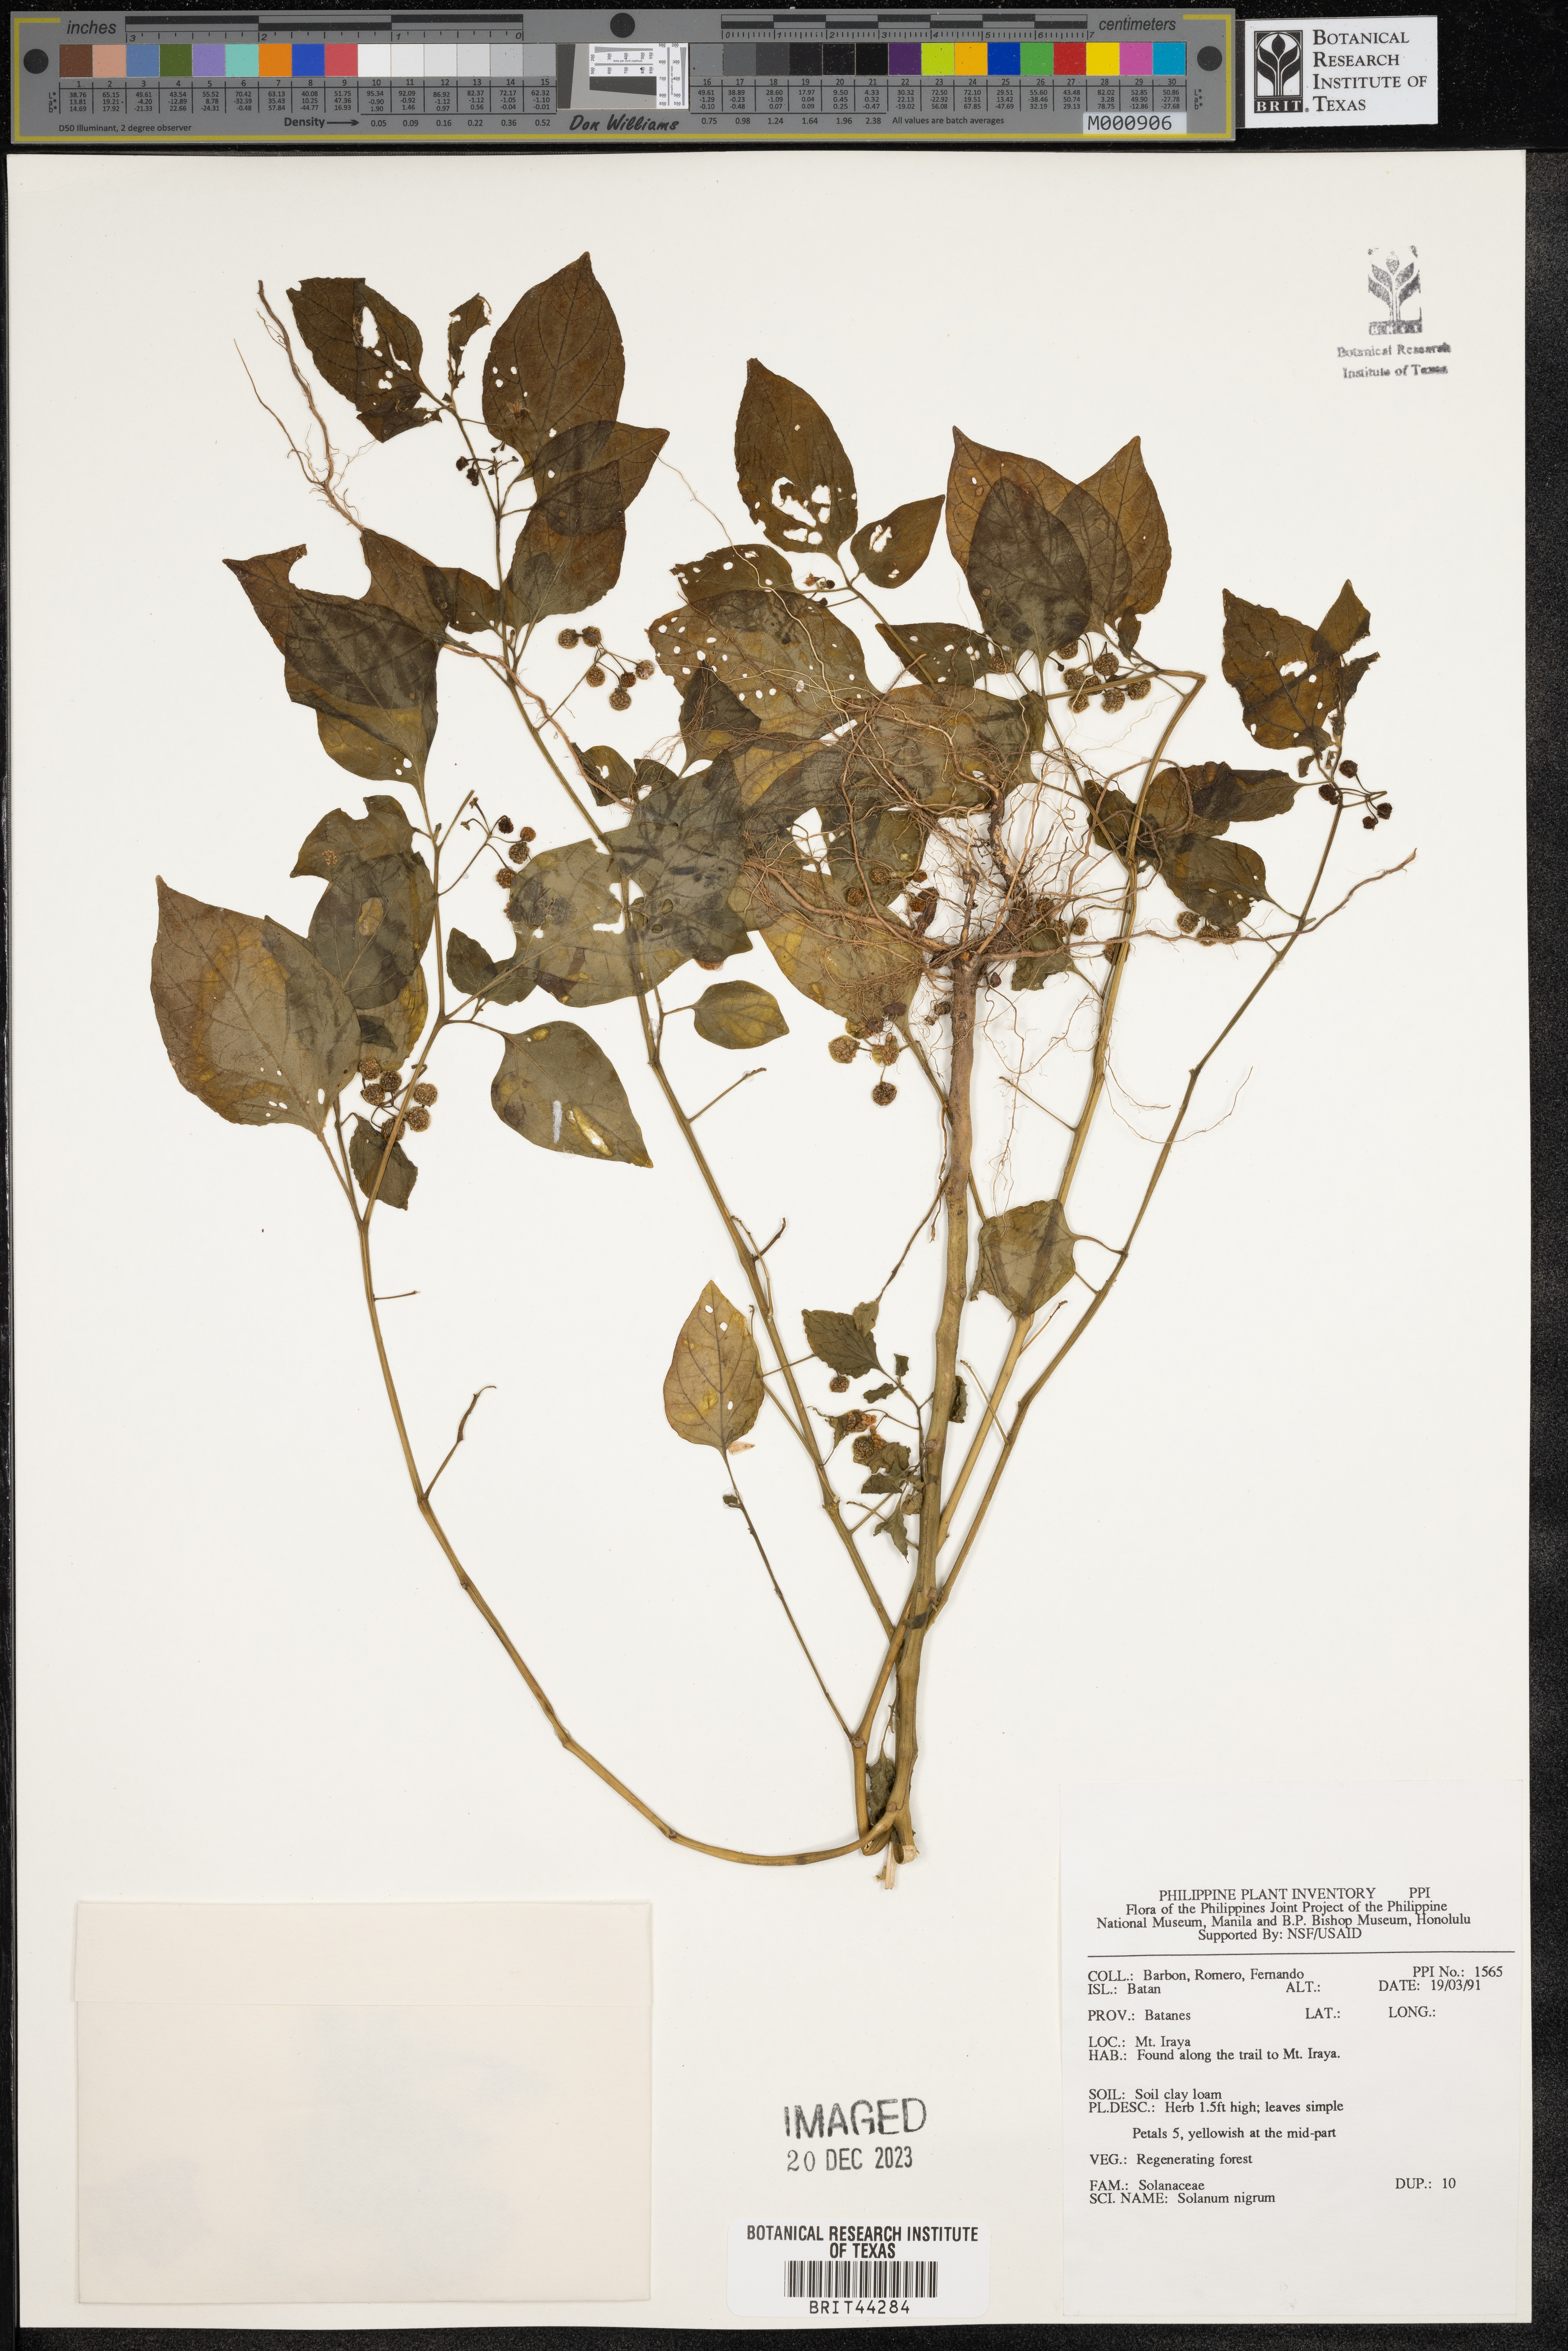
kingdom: Plantae
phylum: Tracheophyta
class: Magnoliopsida
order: Solanales
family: Solanaceae
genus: Solanum
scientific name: Solanum nigrum
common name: Black nightshade
